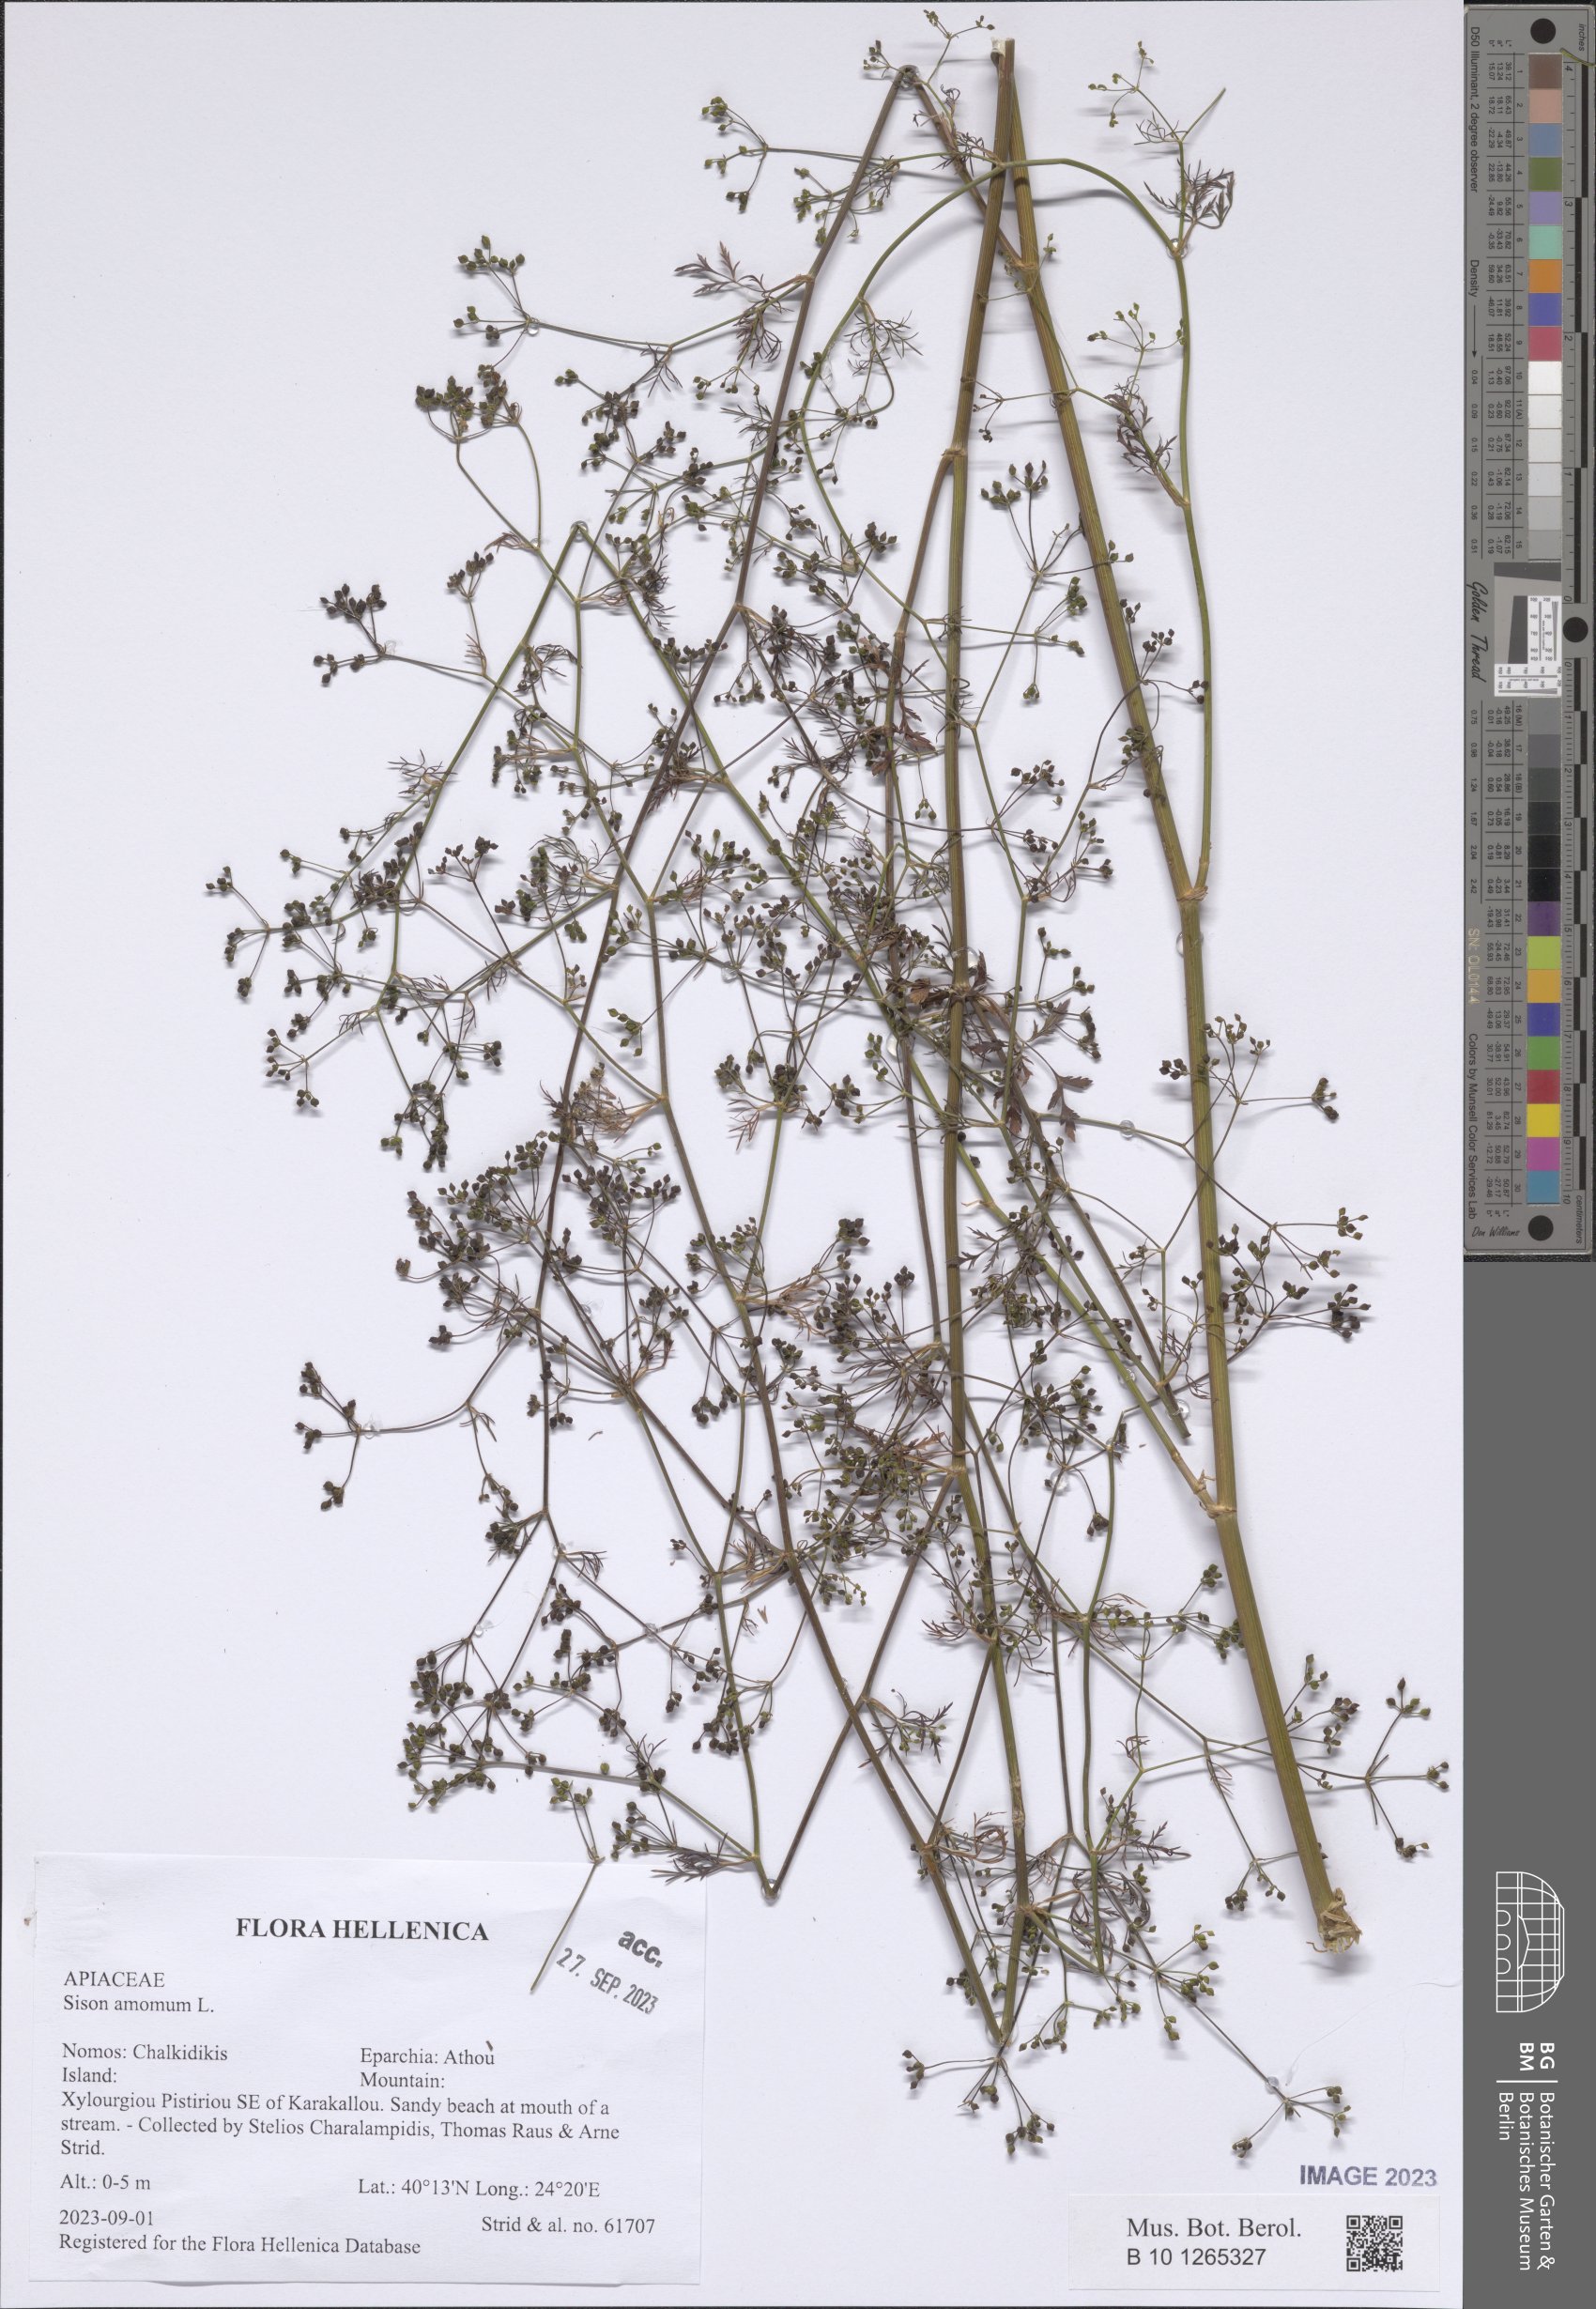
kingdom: Plantae
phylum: Tracheophyta
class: Magnoliopsida
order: Apiales
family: Apiaceae
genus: Sison
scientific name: Sison amomum
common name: Stone-parsley
